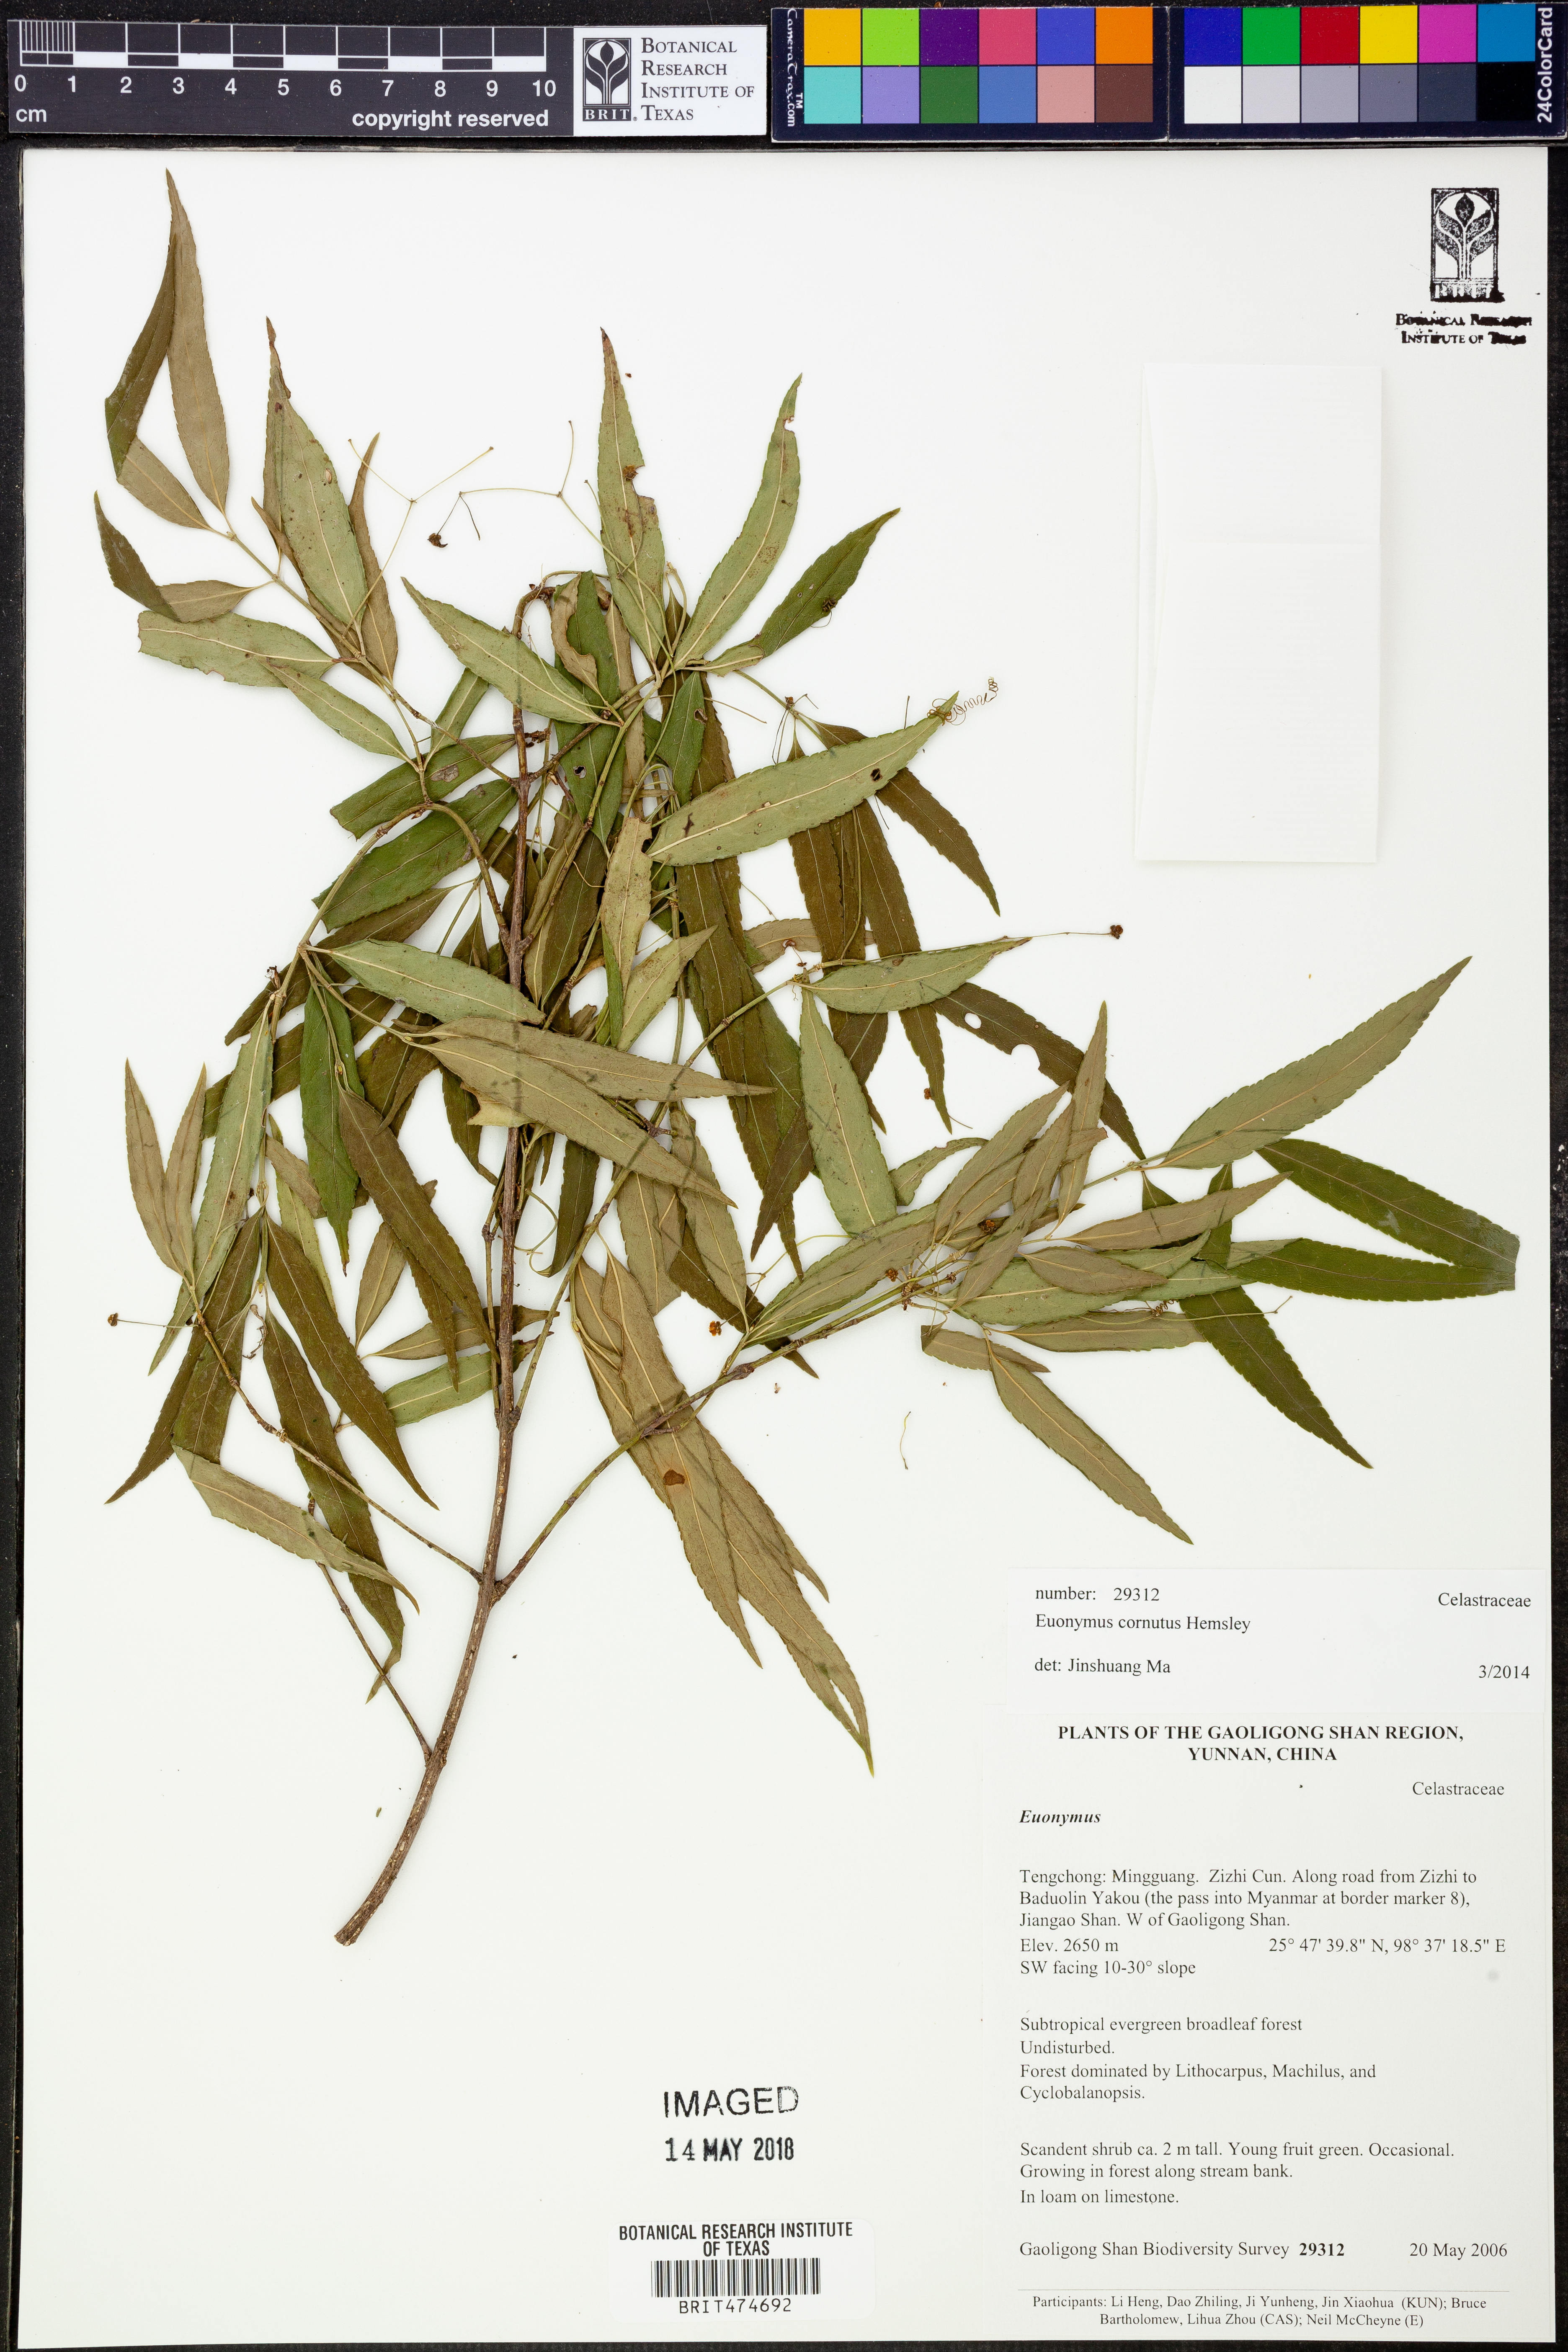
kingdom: Plantae
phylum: Tracheophyta
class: Magnoliopsida
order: Celastrales
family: Celastraceae
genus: Euonymus
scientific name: Euonymus cornutus
